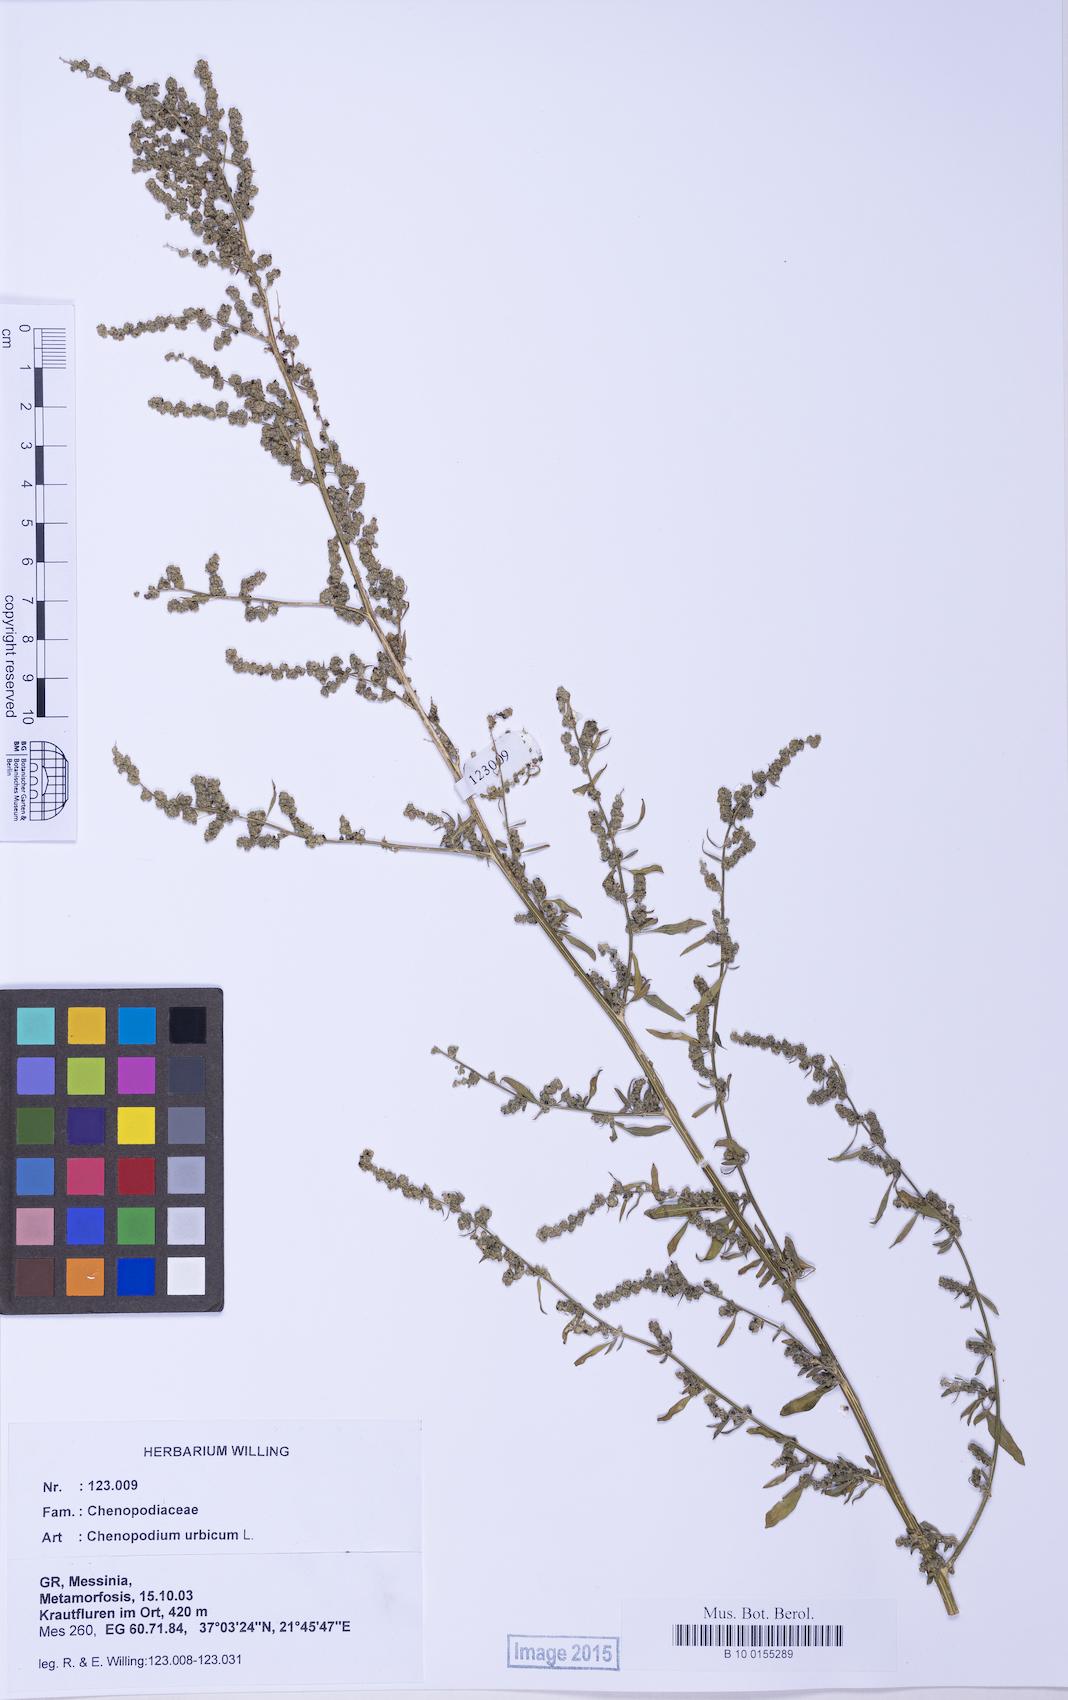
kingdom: Plantae
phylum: Tracheophyta
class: Magnoliopsida
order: Caryophyllales
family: Amaranthaceae
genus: Chenopodium
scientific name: Chenopodium album
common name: Fat-hen
